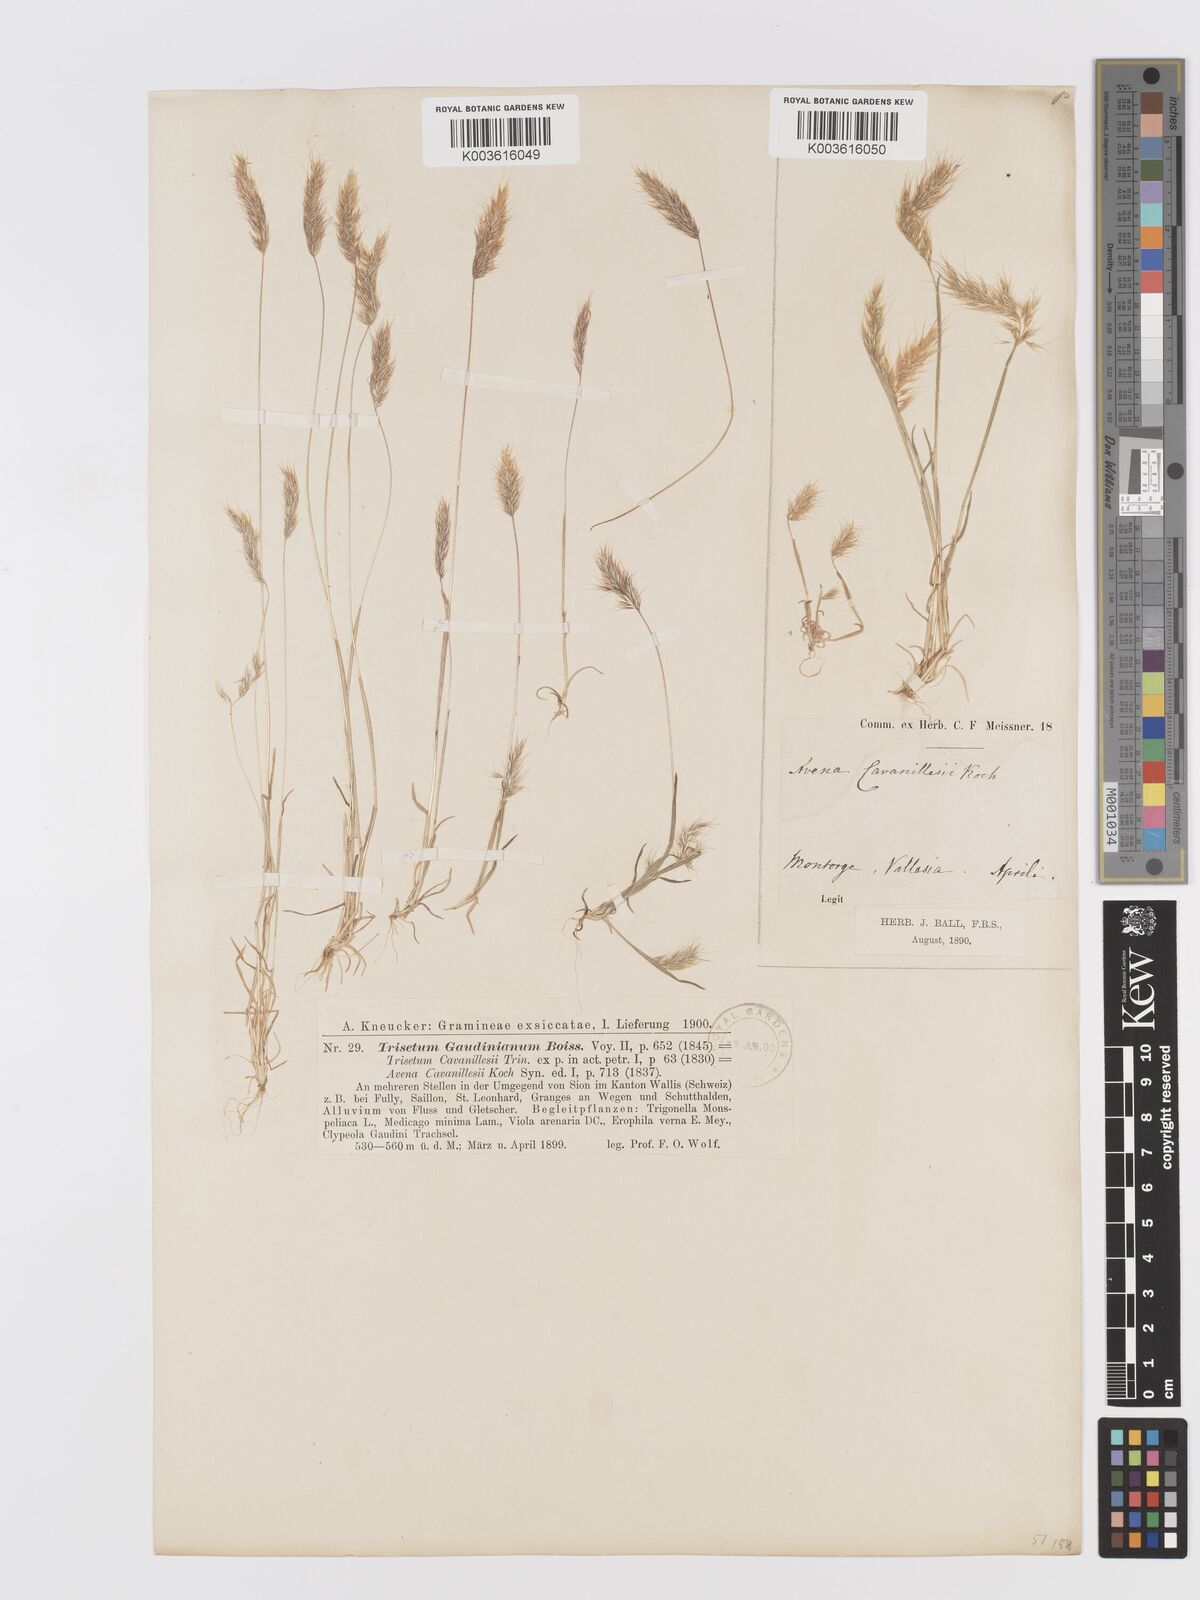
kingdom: Plantae
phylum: Tracheophyta
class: Liliopsida
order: Poales
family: Poaceae
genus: Trisetaria
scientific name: Trisetaria loeflingiana
